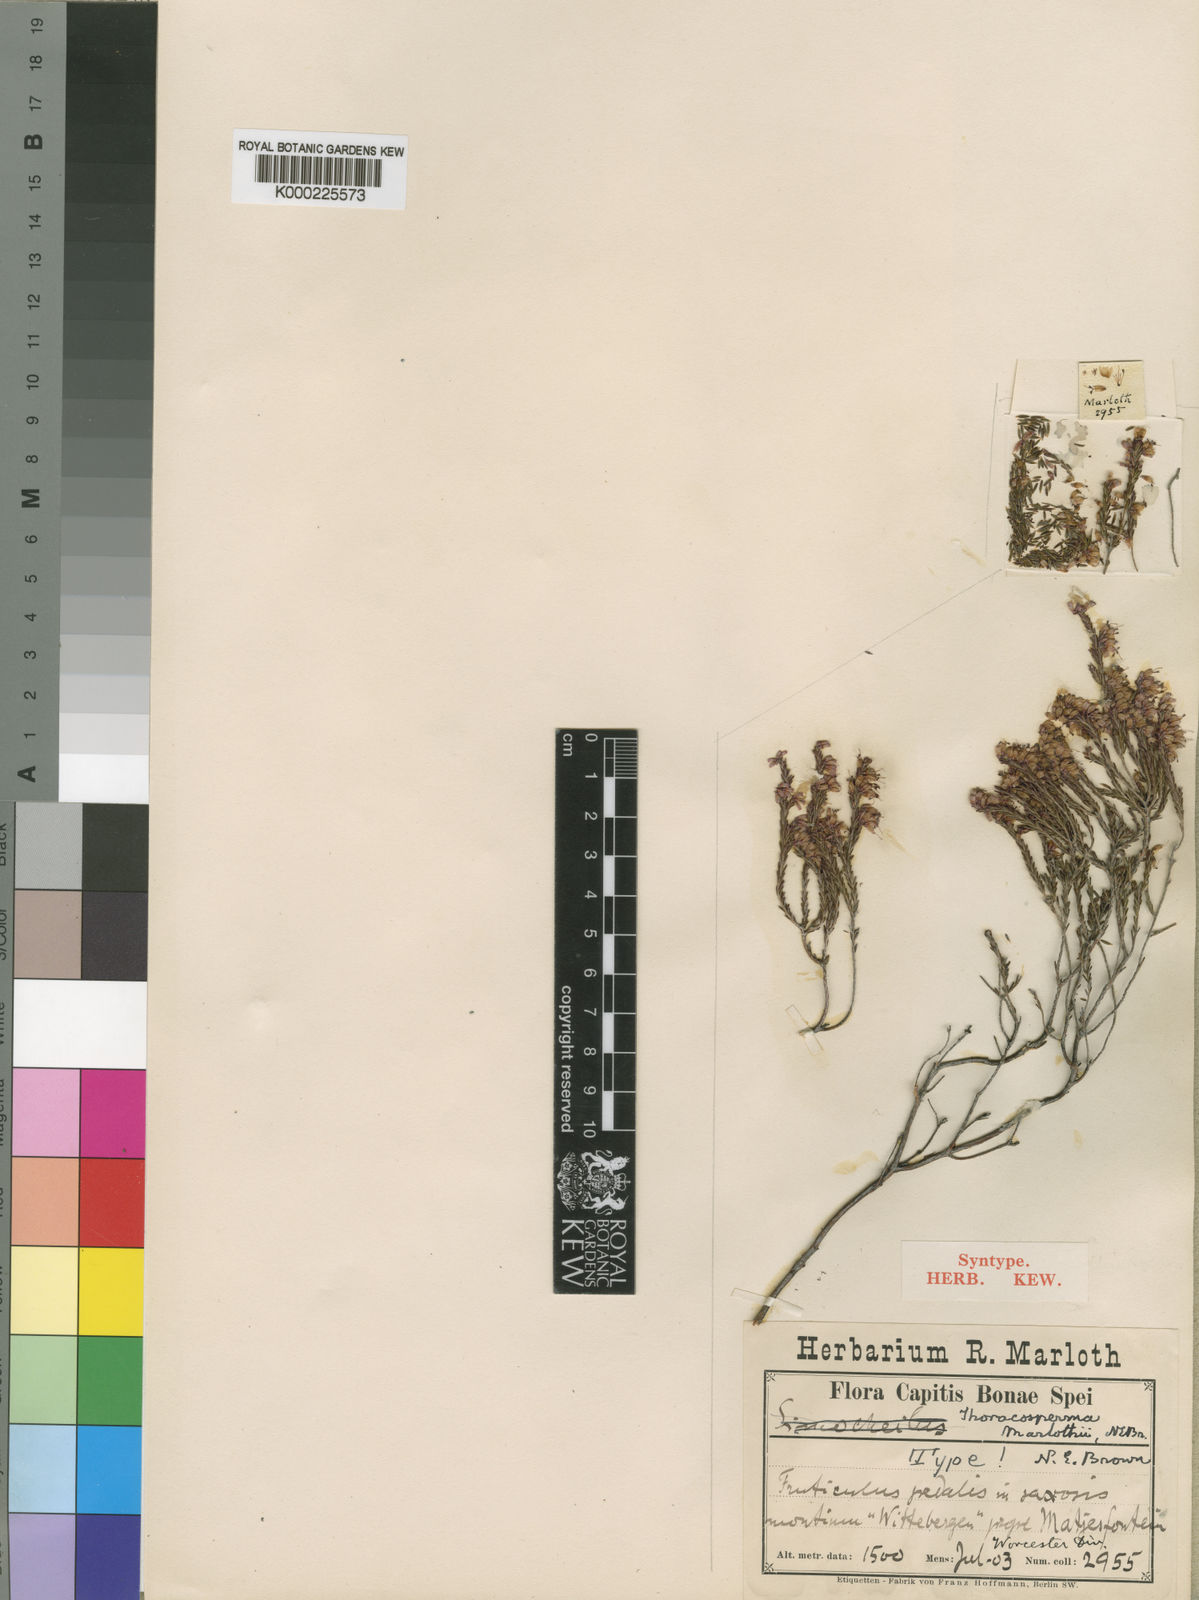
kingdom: Plantae
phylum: Tracheophyta
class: Magnoliopsida
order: Ericales
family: Ericaceae
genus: Erica
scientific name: Erica rosacea
